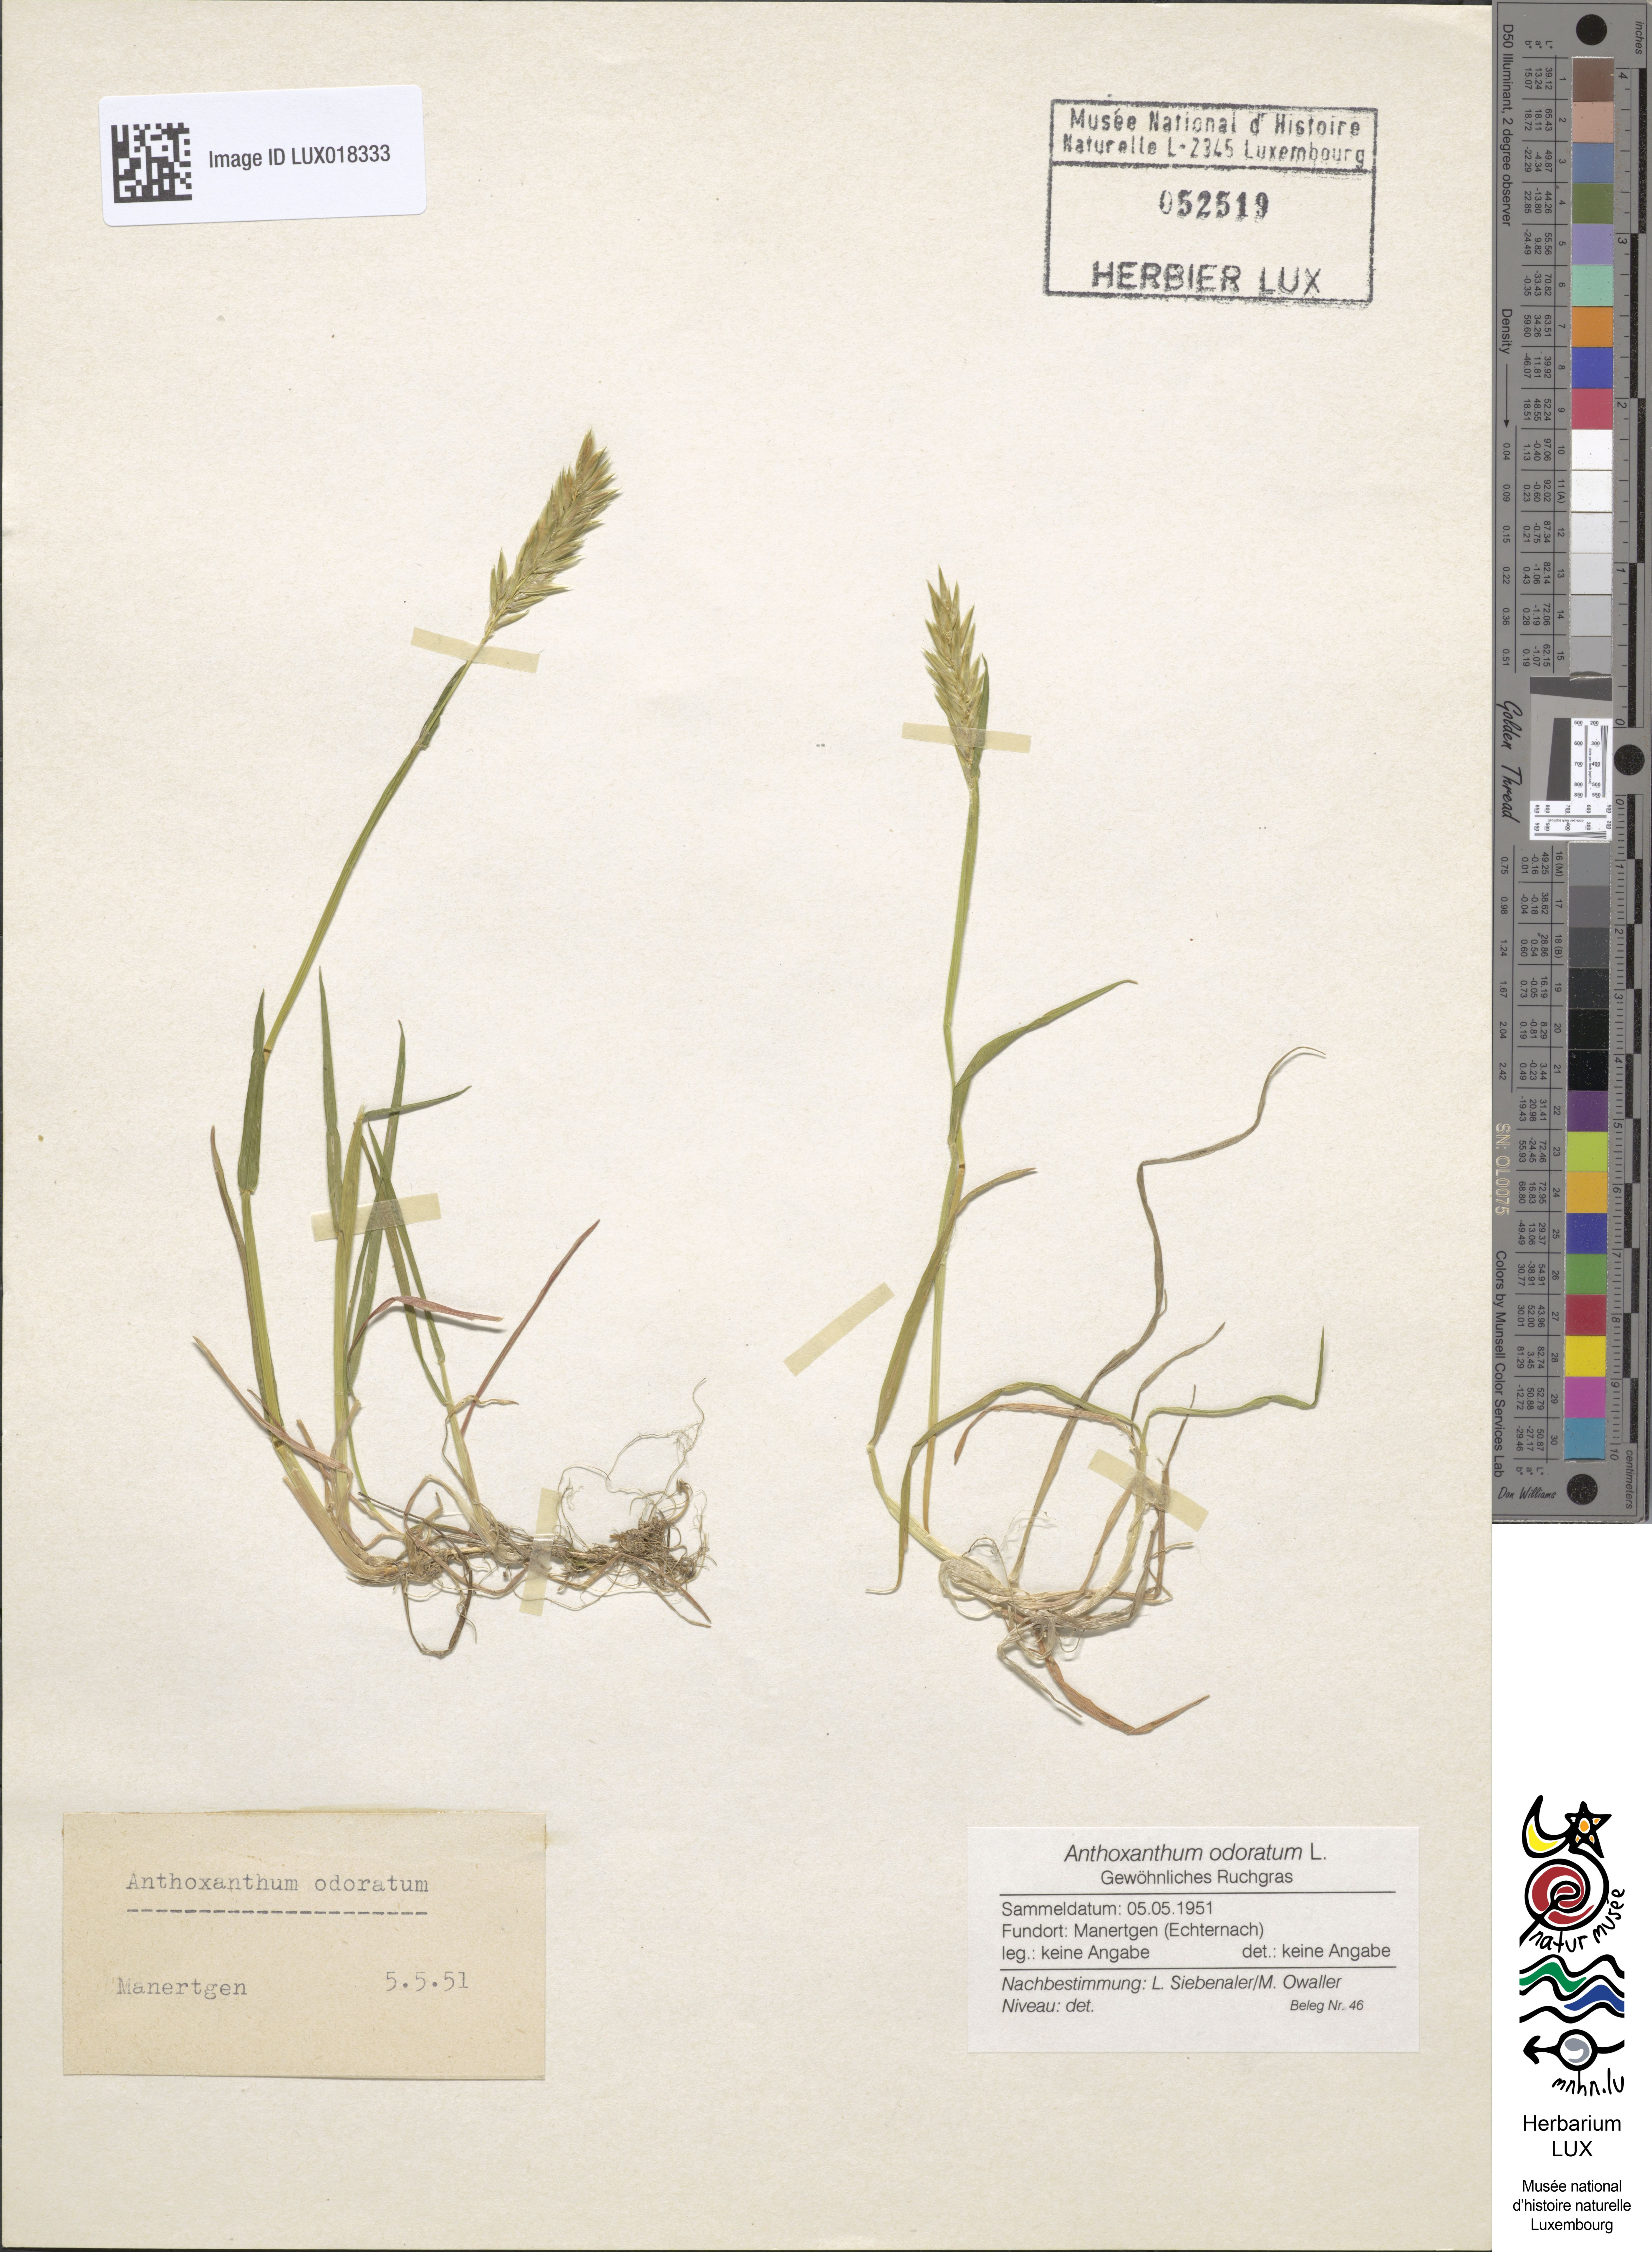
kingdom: Plantae
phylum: Tracheophyta
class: Liliopsida
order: Poales
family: Poaceae
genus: Anthoxanthum
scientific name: Anthoxanthum odoratum
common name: Sweet vernalgrass
